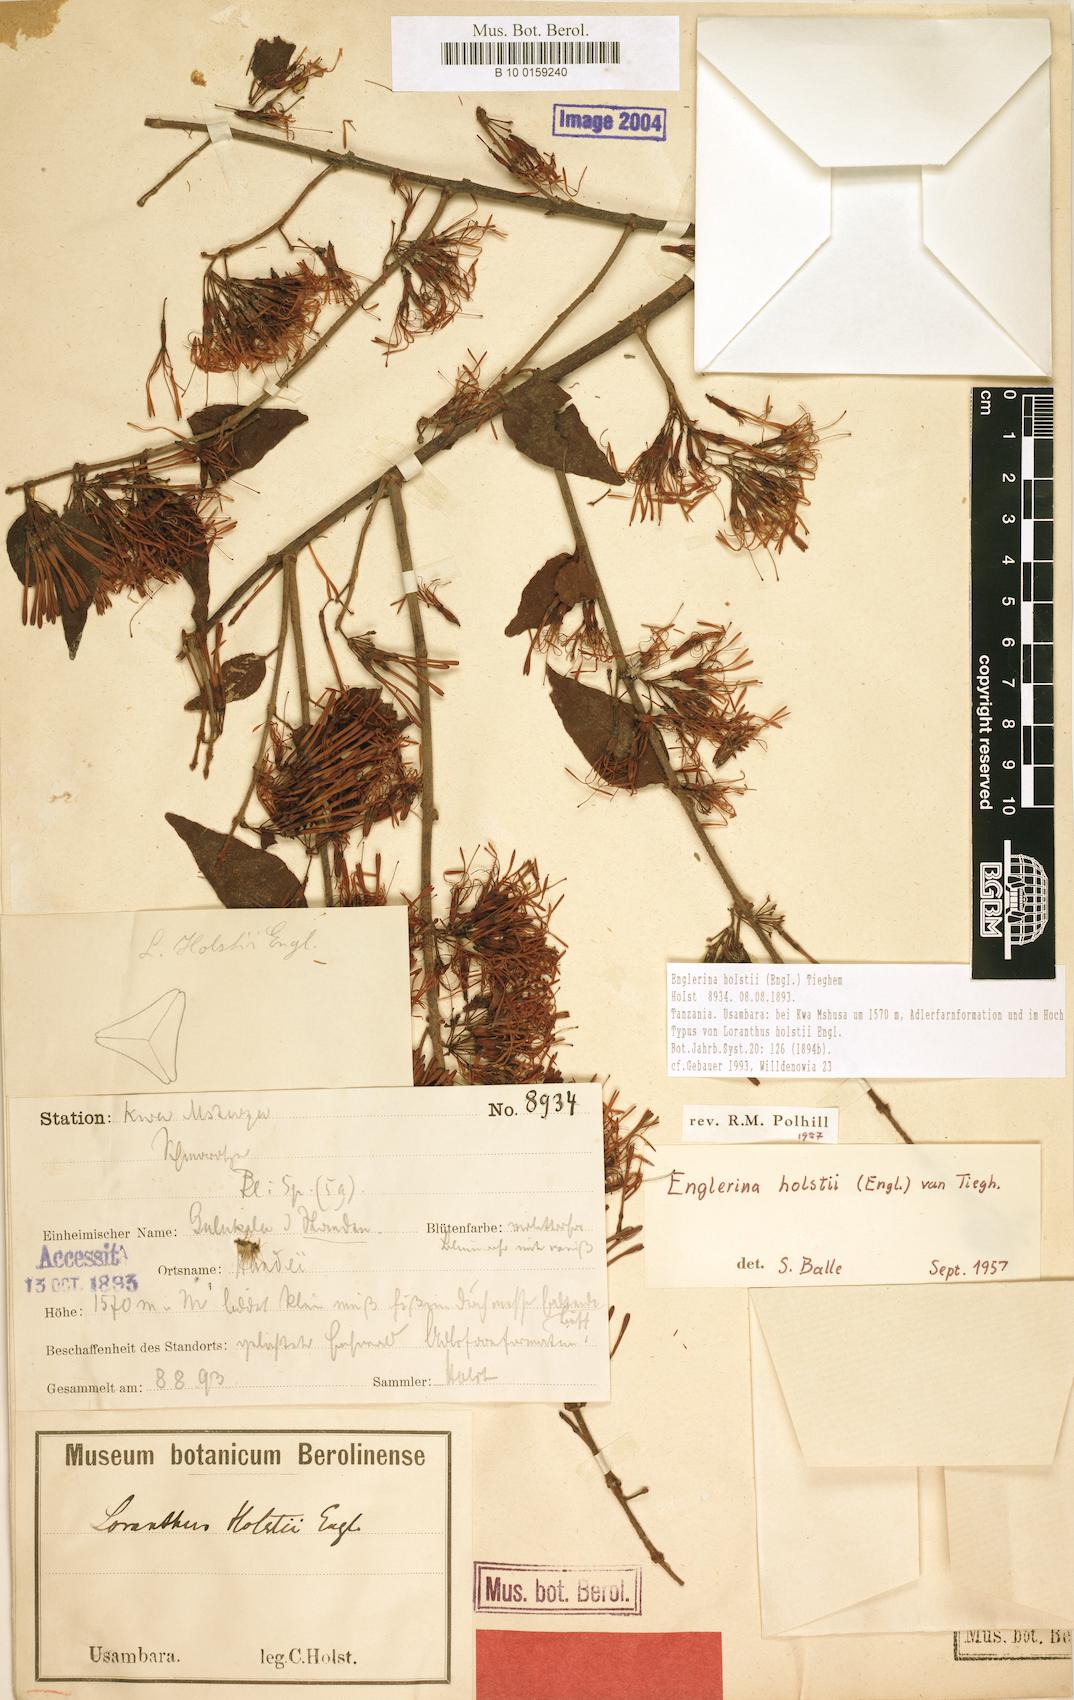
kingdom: Plantae
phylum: Tracheophyta
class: Magnoliopsida
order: Santalales
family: Loranthaceae
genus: Englerina
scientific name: Englerina holstii
